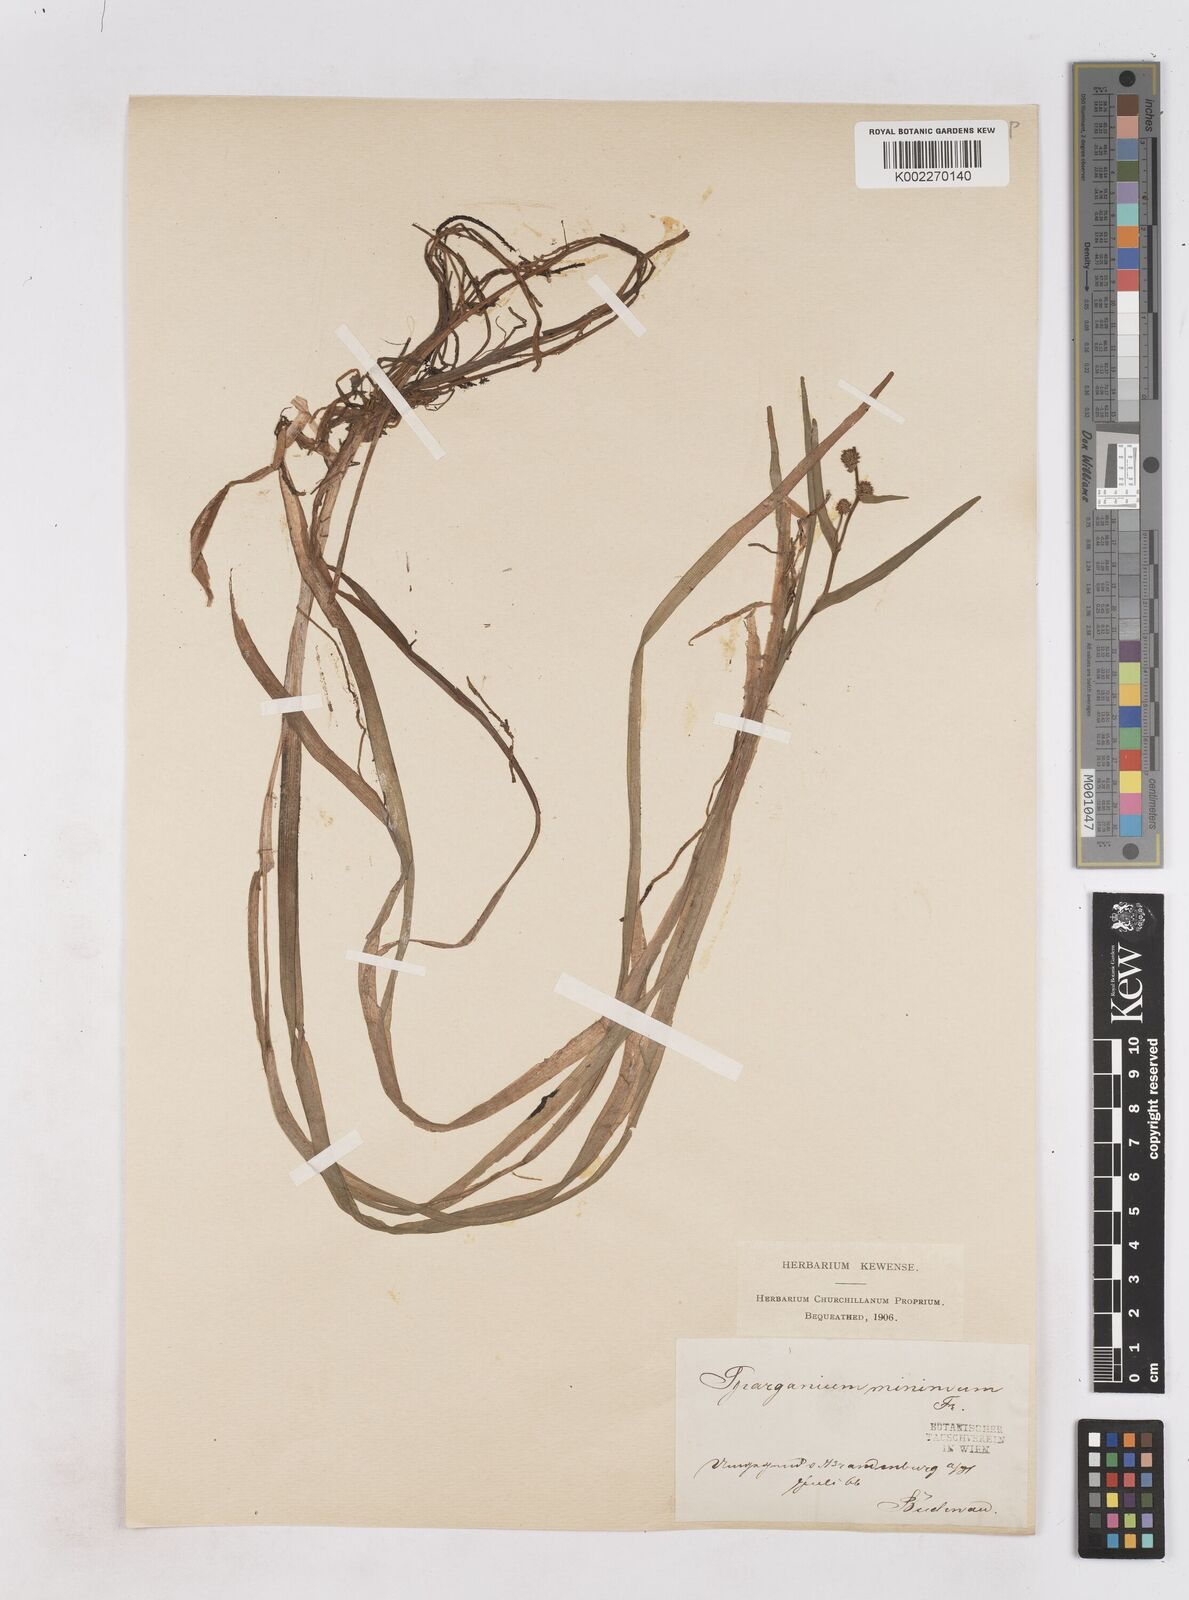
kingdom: Plantae
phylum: Tracheophyta
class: Liliopsida
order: Poales
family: Typhaceae
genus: Sparganium
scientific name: Sparganium natans
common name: Least bur-reed
